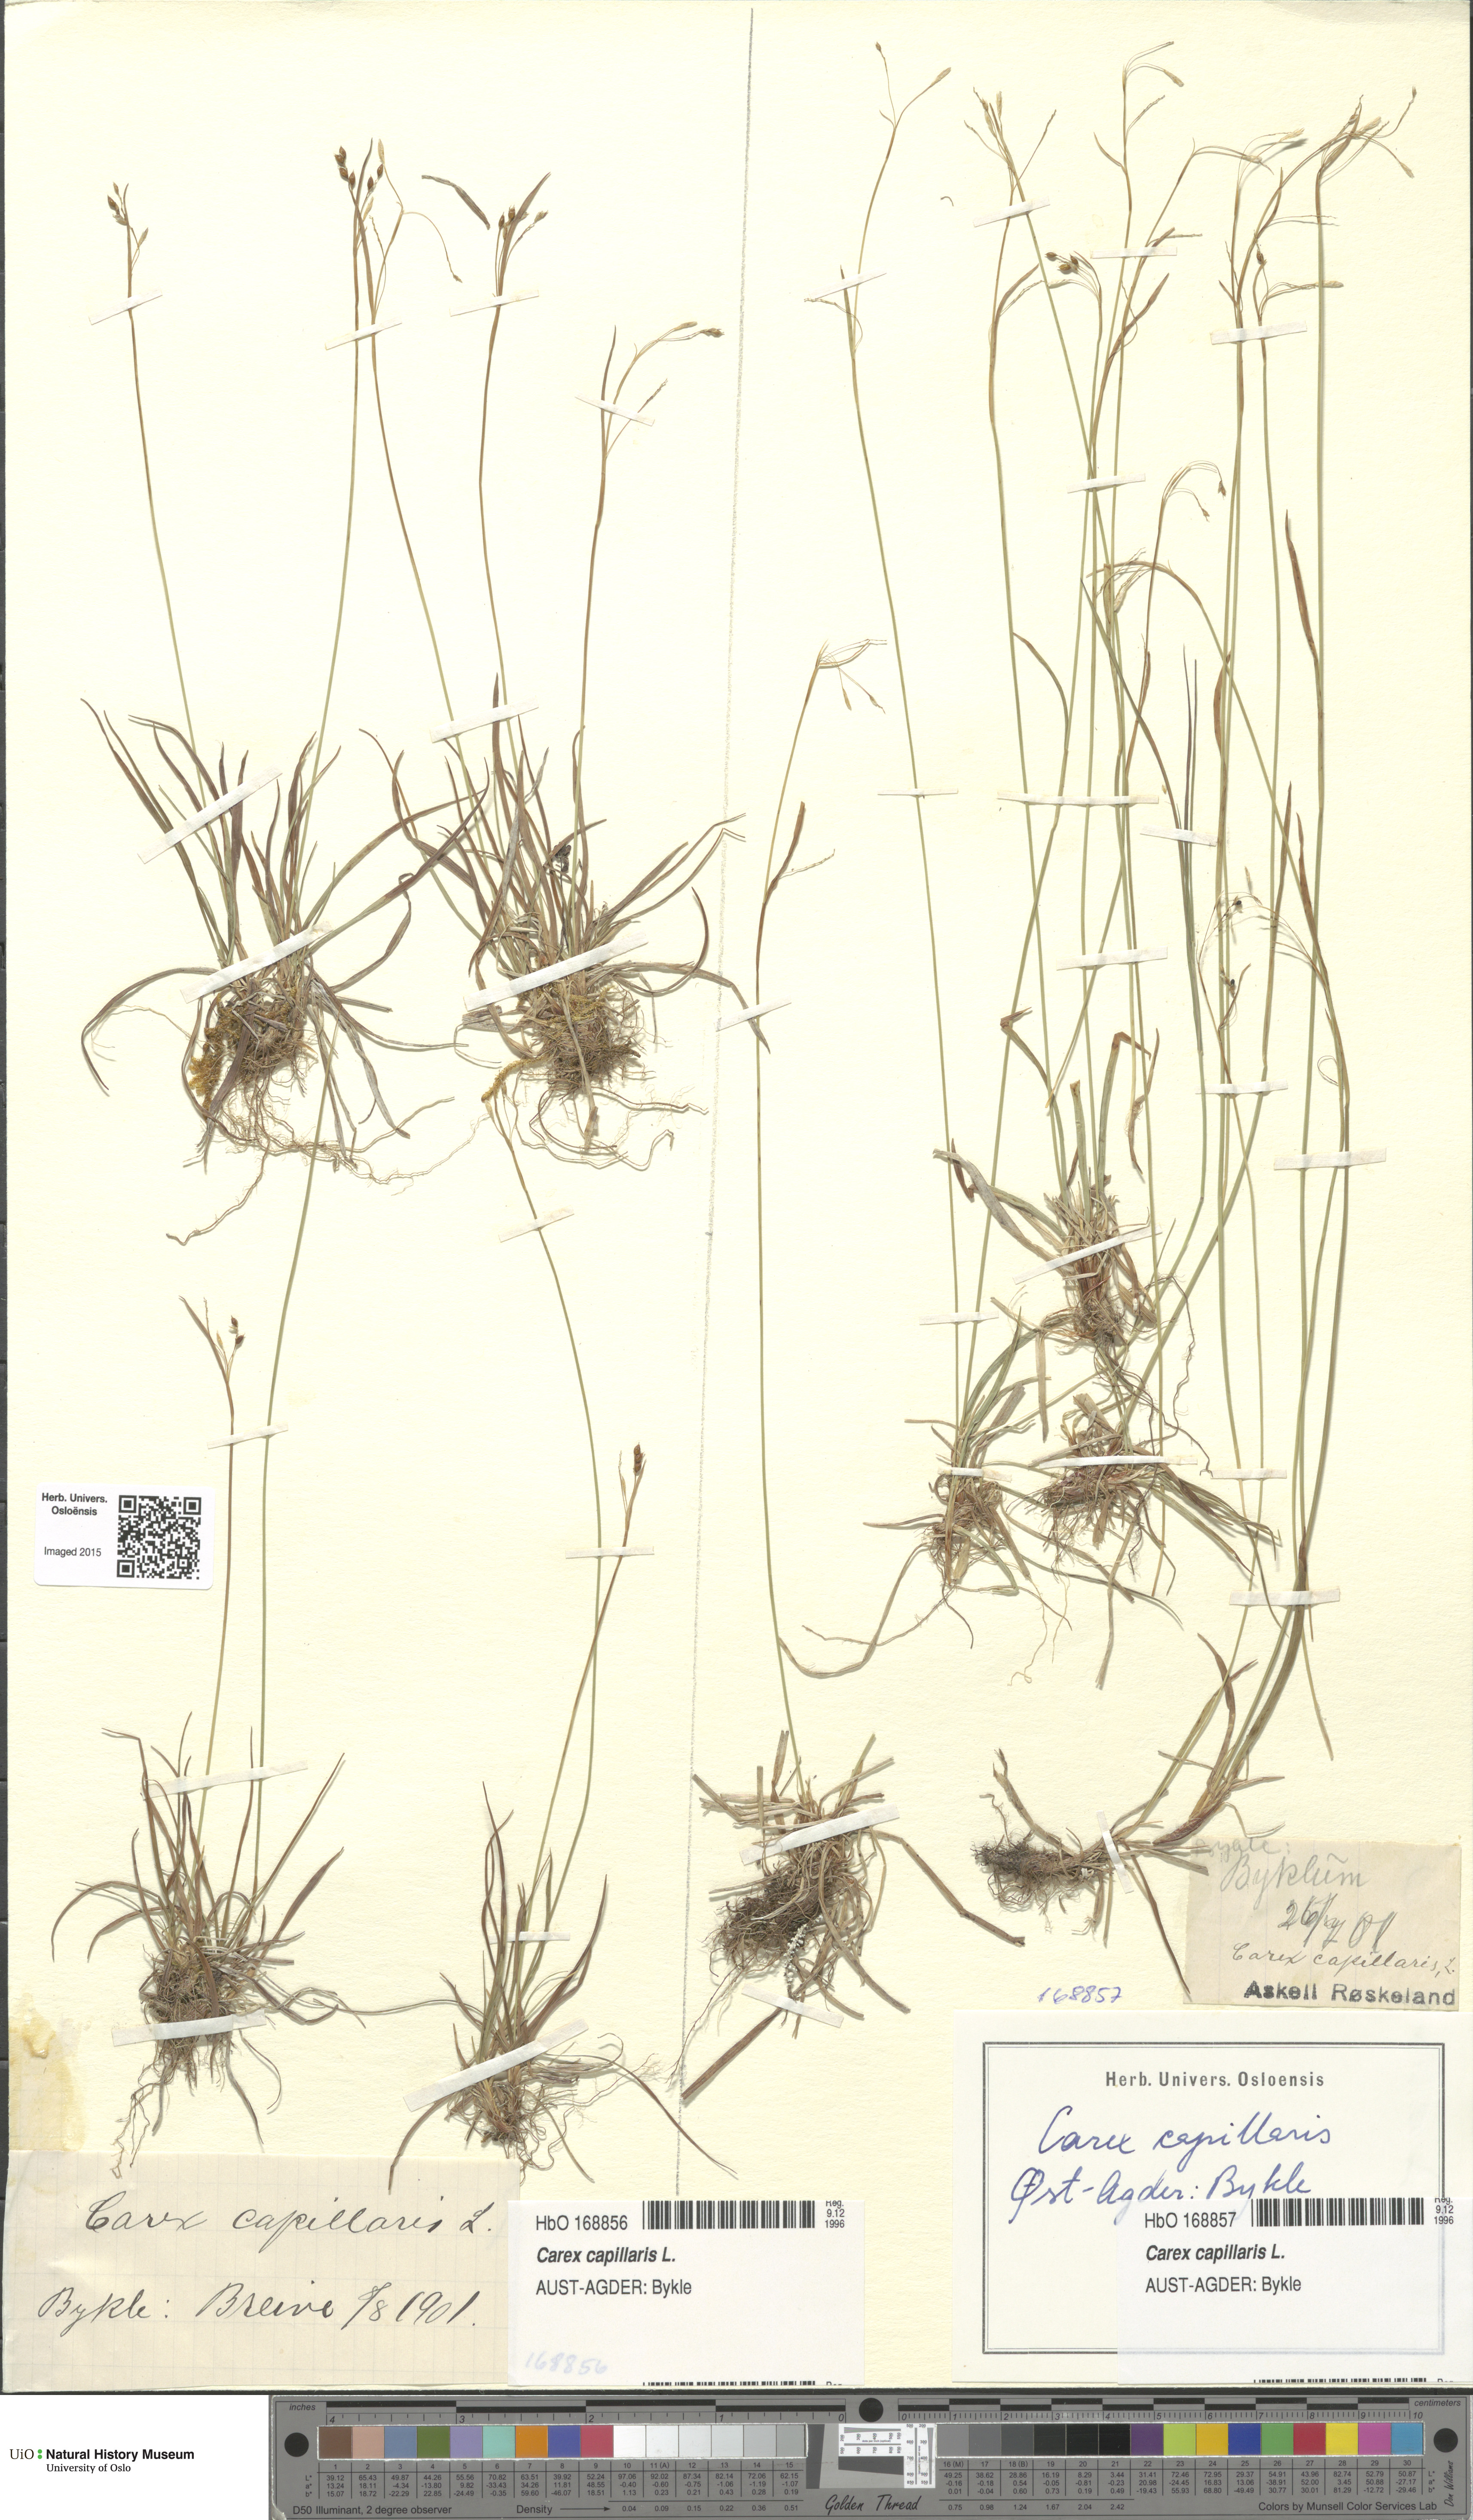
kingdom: Plantae
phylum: Tracheophyta
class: Liliopsida
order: Poales
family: Cyperaceae
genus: Carex
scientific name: Carex capillaris
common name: Hair sedge
